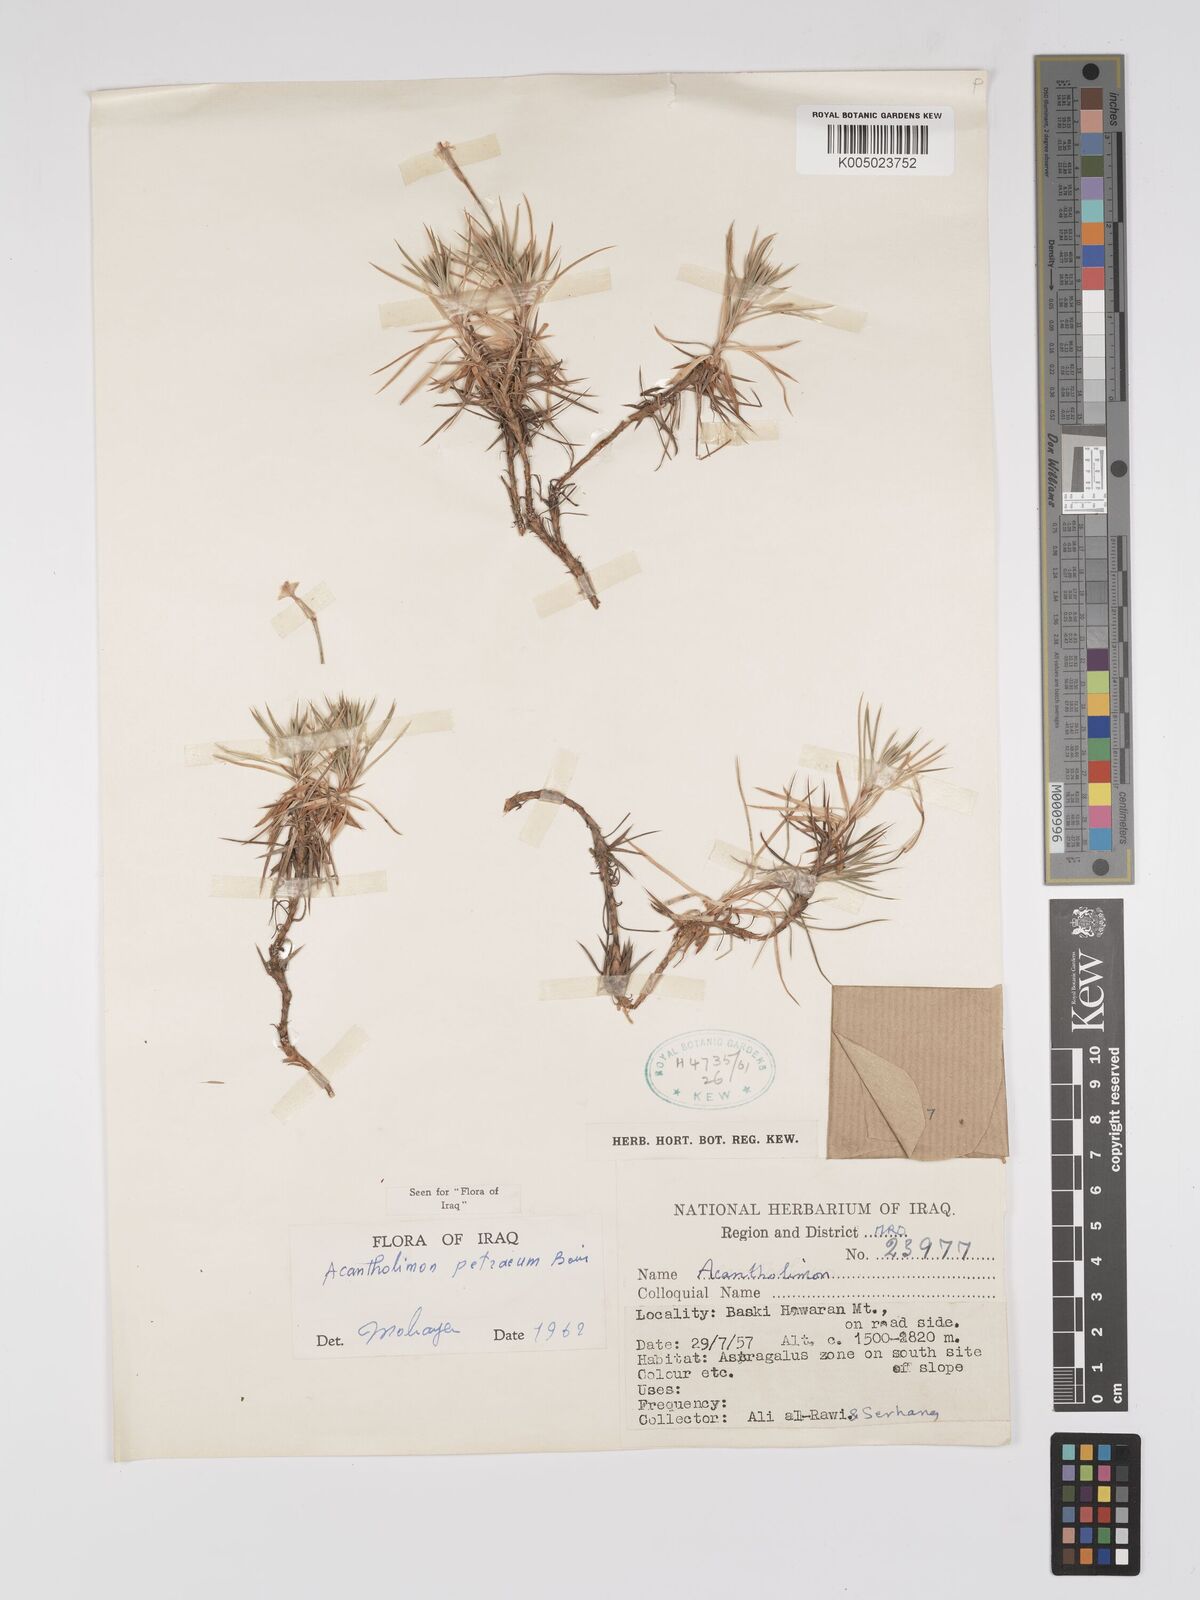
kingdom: Plantae
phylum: Tracheophyta
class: Magnoliopsida
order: Caryophyllales
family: Plumbaginaceae
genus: Acantholimon
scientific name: Acantholimon petraeum
